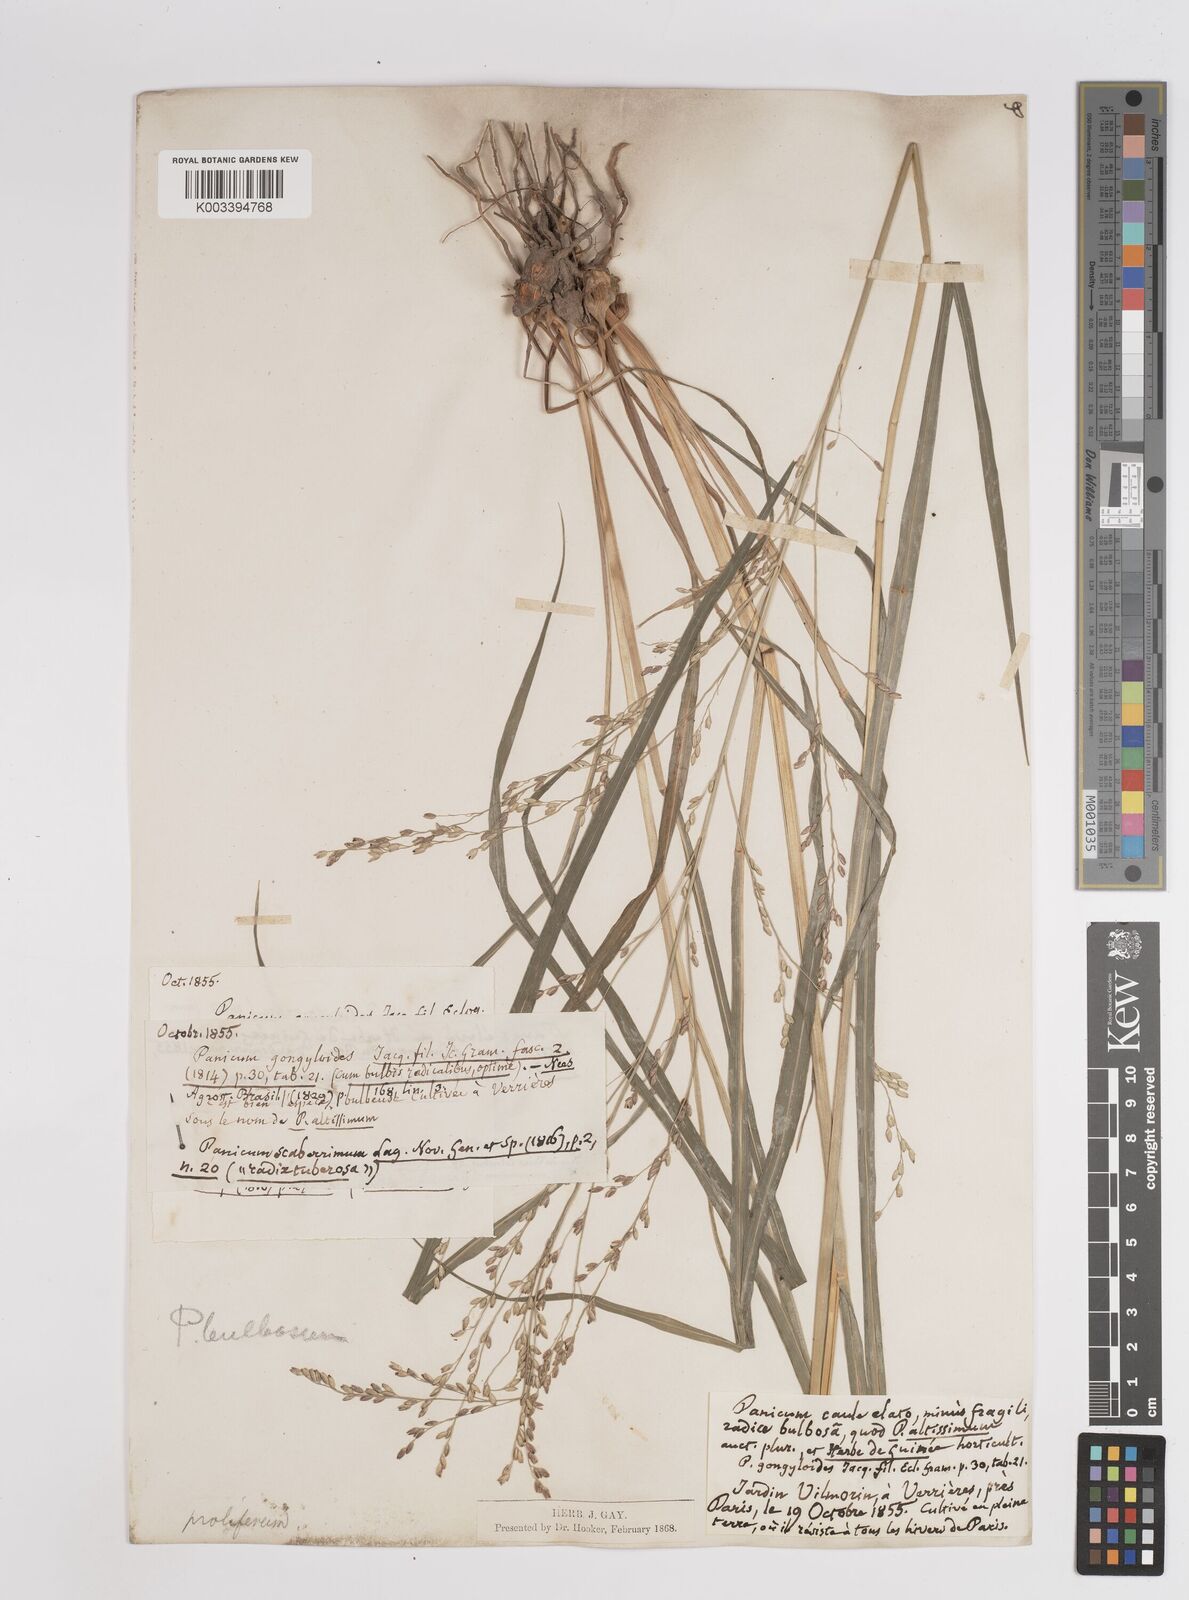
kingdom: Plantae
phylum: Tracheophyta
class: Liliopsida
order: Poales
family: Poaceae
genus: Zuloagaea
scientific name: Zuloagaea bulbosa
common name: Canyon panic grass
